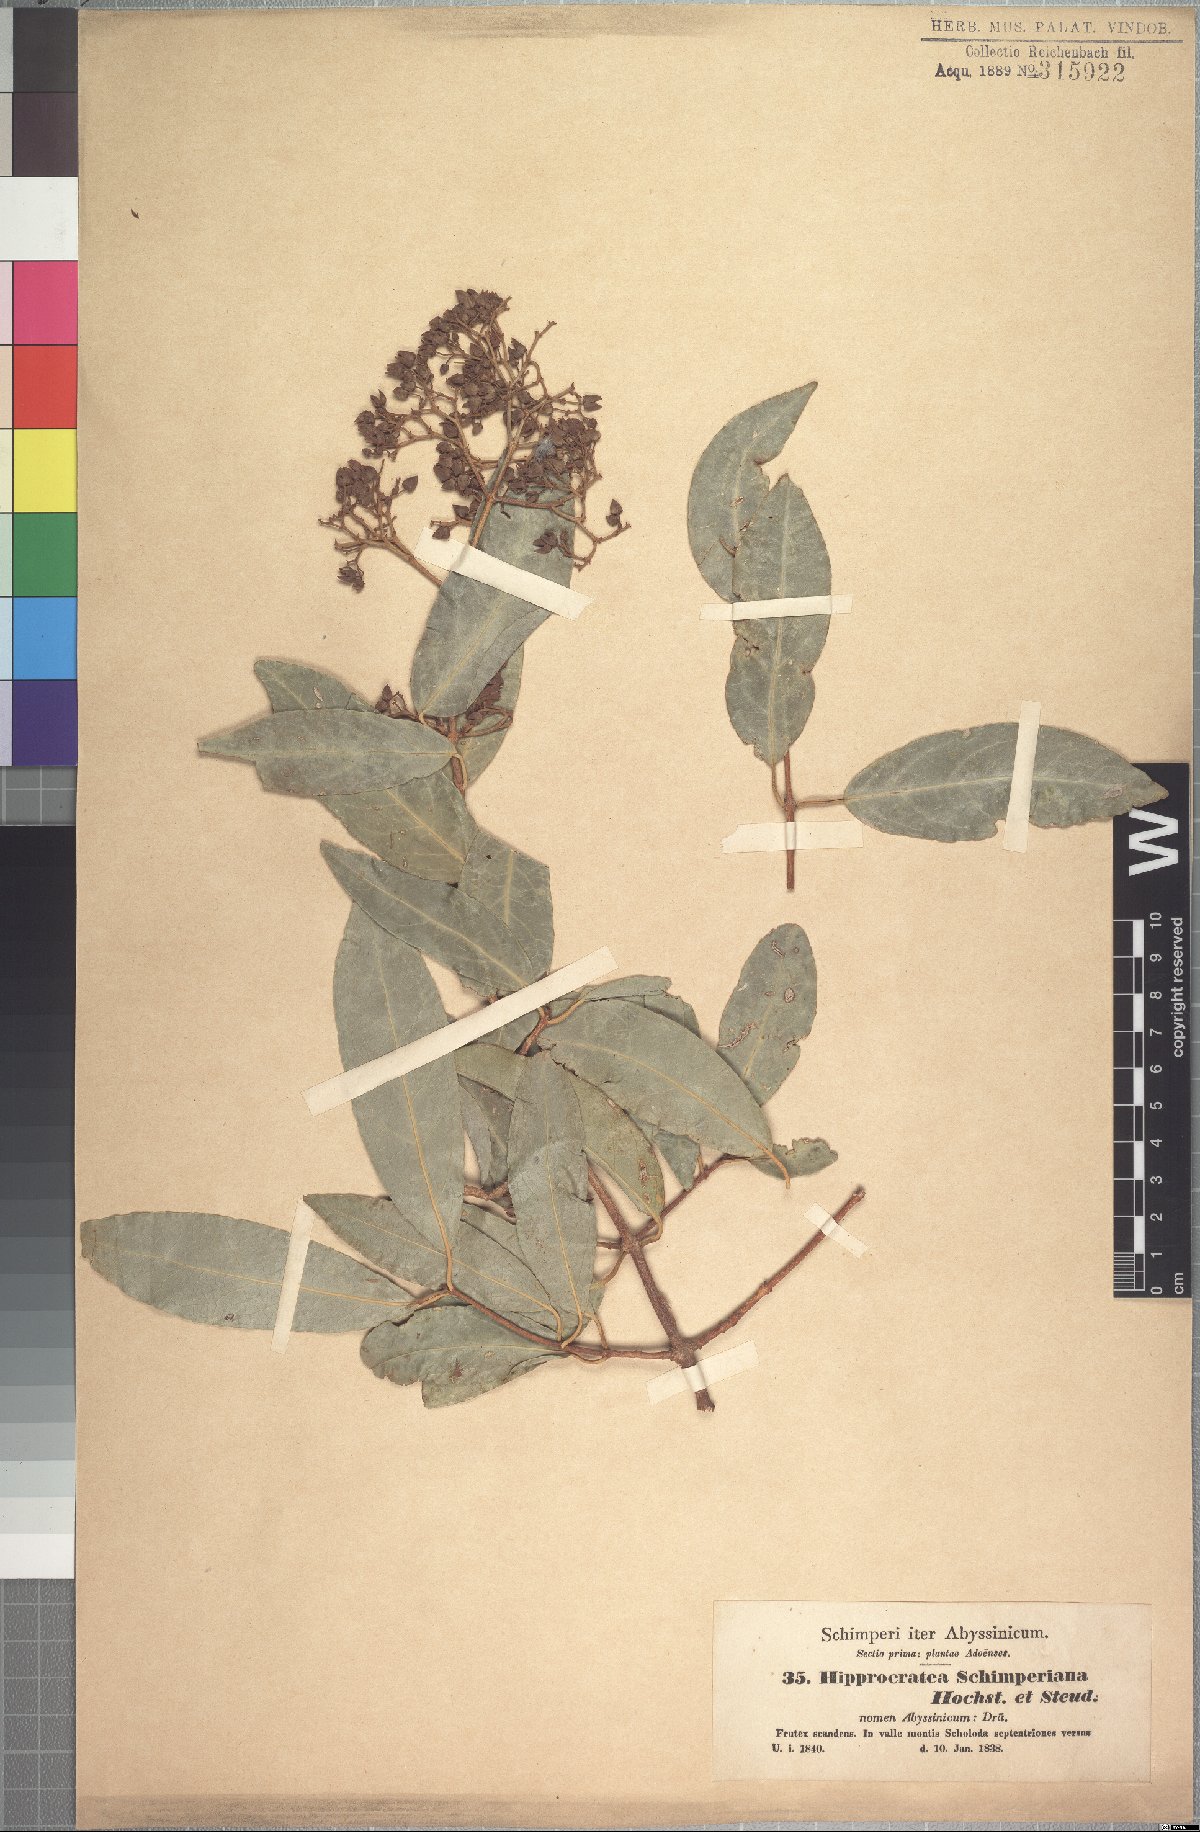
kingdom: Plantae
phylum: Tracheophyta
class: Magnoliopsida
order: Celastrales
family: Celastraceae
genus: Loeseneriella
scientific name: Loeseneriella africana
